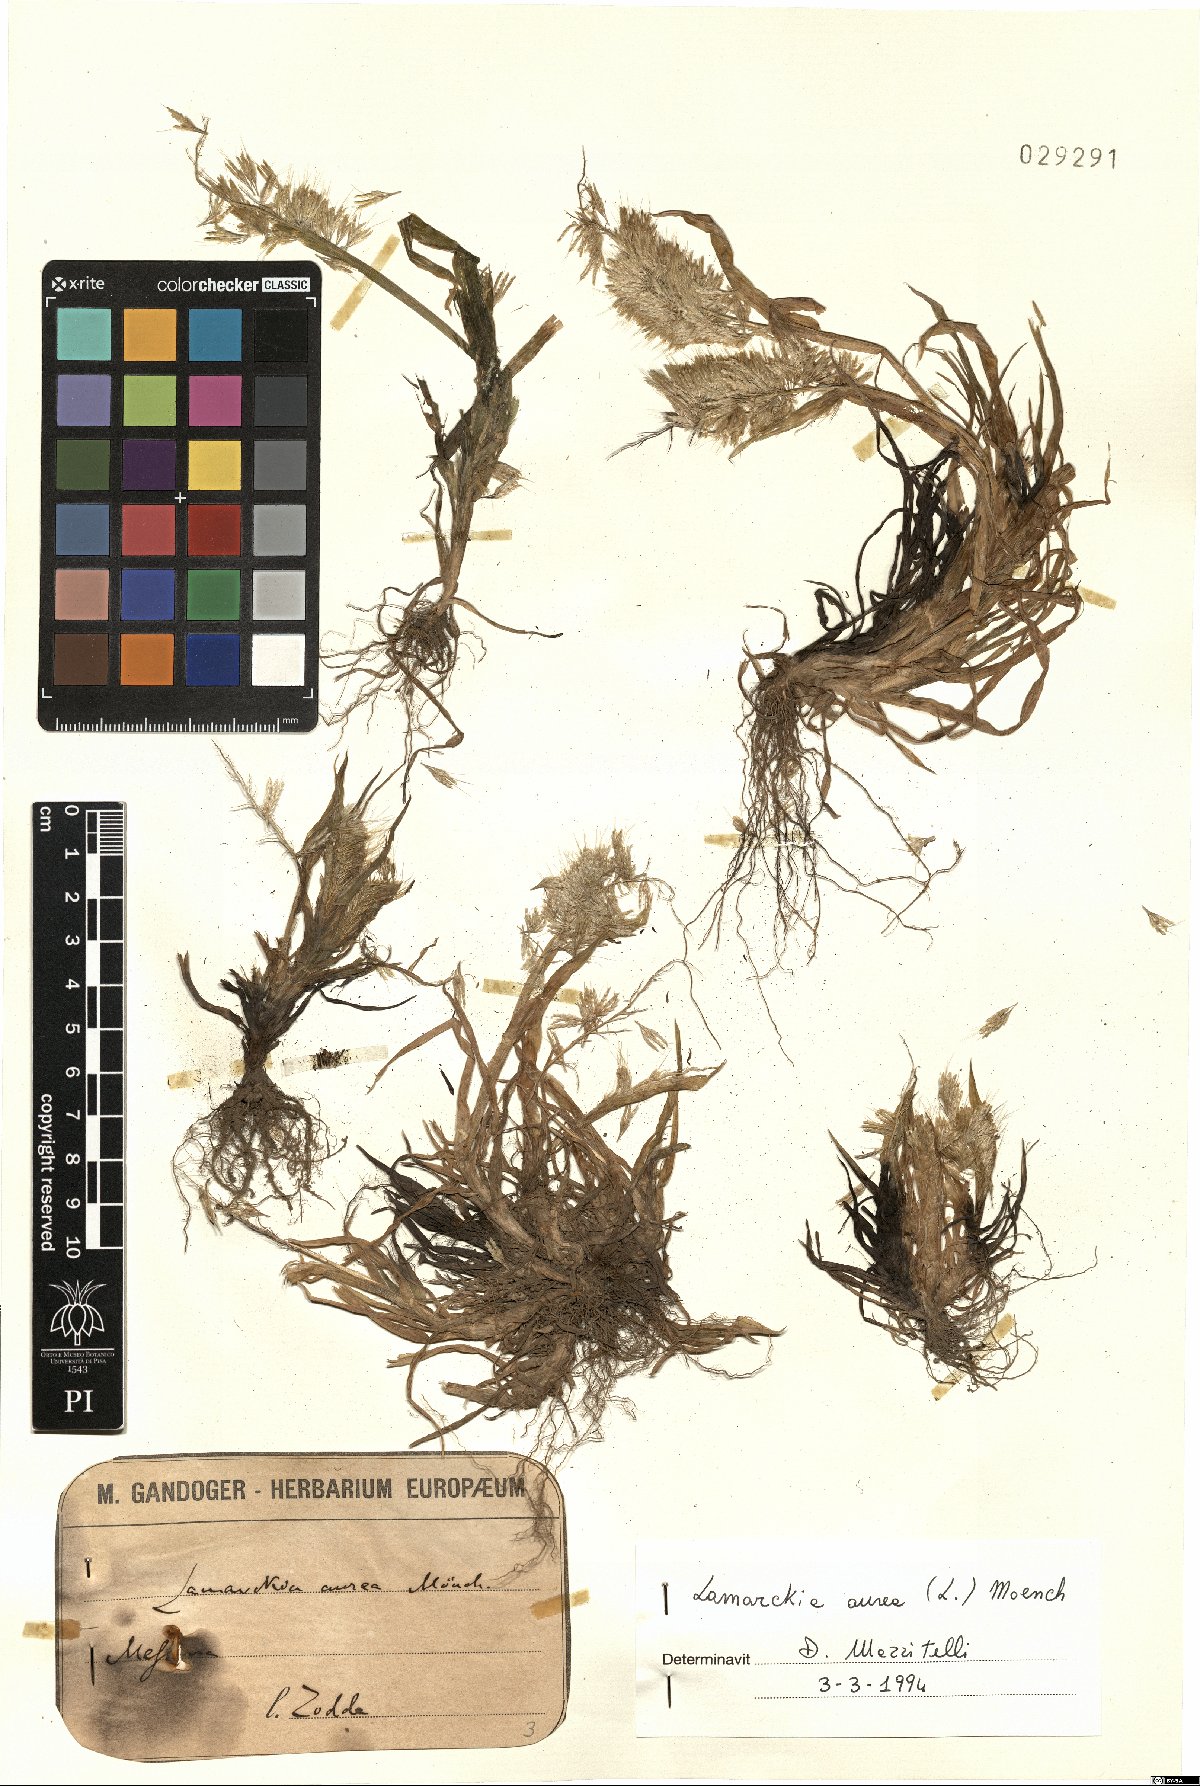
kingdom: Plantae
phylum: Tracheophyta
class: Liliopsida
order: Poales
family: Poaceae
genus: Lamarckia
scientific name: Lamarckia aurea
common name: Golden dog's-tail
